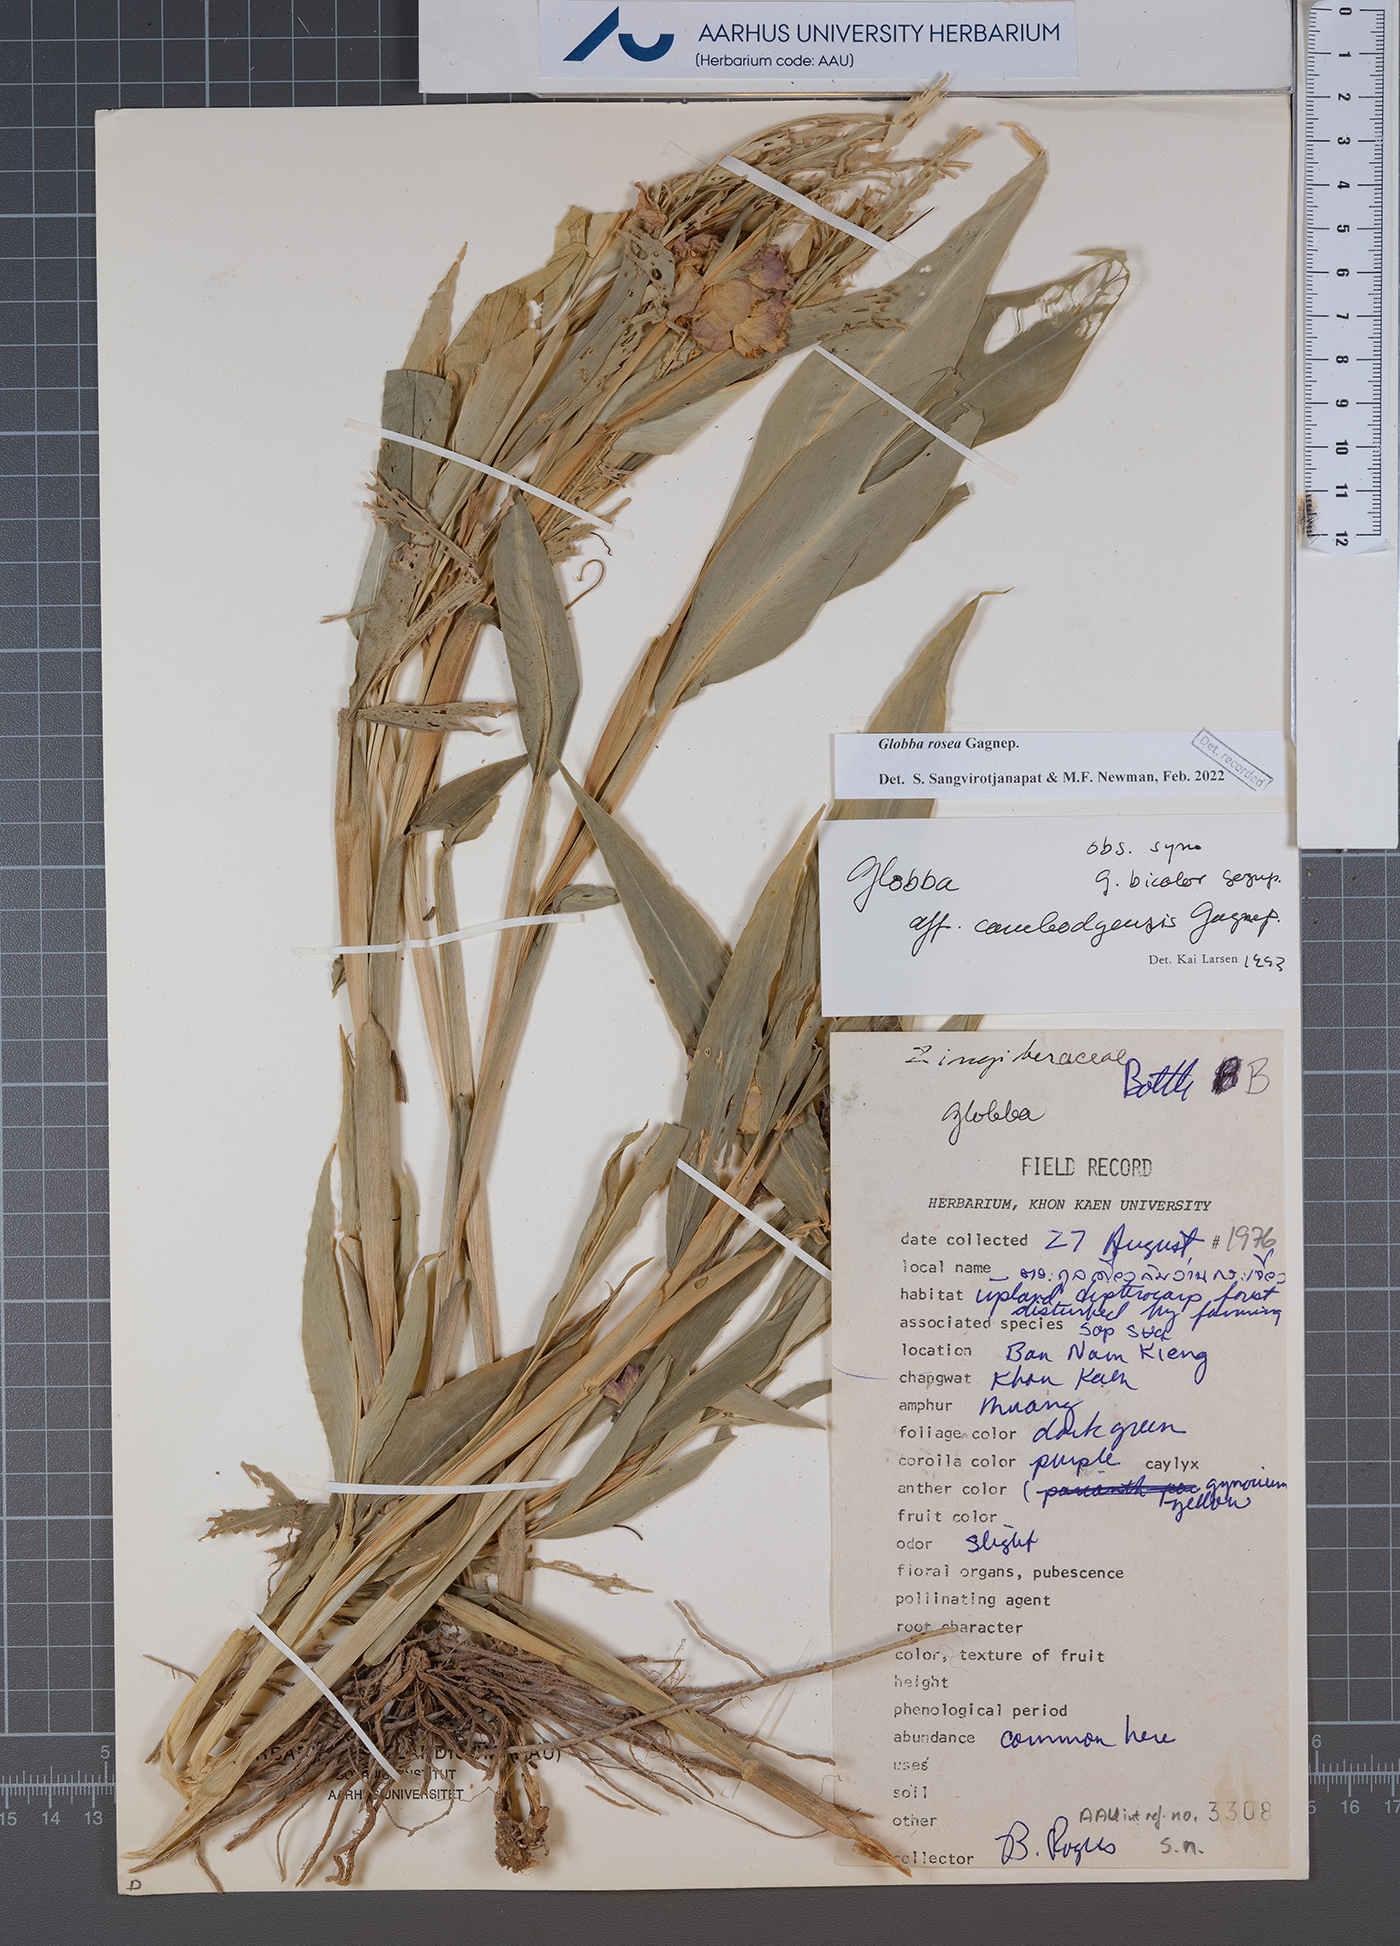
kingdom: Plantae
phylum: Tracheophyta
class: Liliopsida
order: Zingiberales
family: Zingiberaceae
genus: Globba
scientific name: Globba rosea
